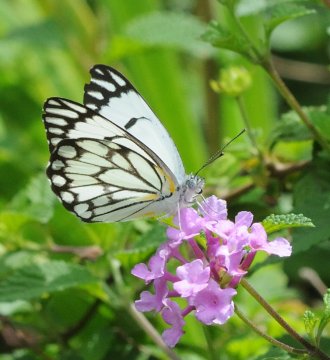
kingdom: Animalia
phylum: Arthropoda
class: Insecta
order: Lepidoptera
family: Pieridae
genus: Belenois
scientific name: Belenois aurota
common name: Pioneer White
